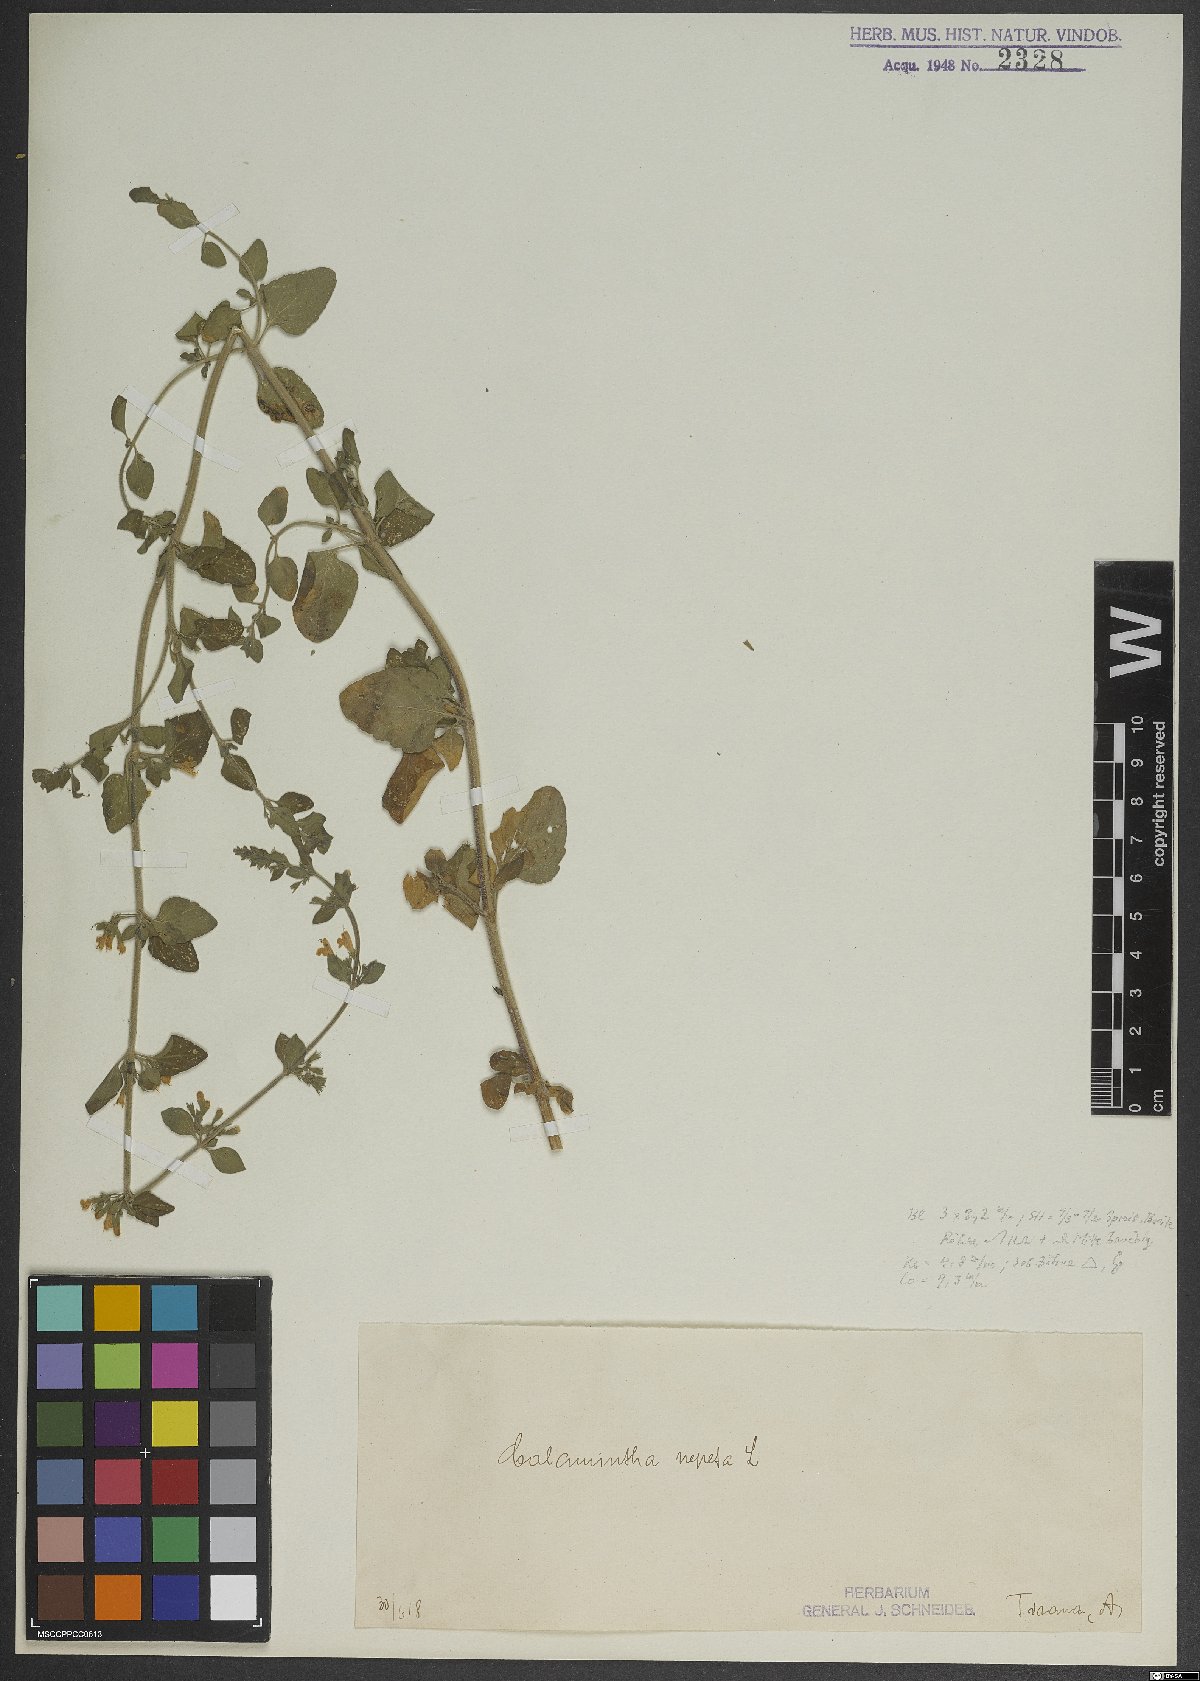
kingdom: Plantae
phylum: Tracheophyta
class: Magnoliopsida
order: Lamiales
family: Lamiaceae
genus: Clinopodium
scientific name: Clinopodium nepeta
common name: Lesser calamint
